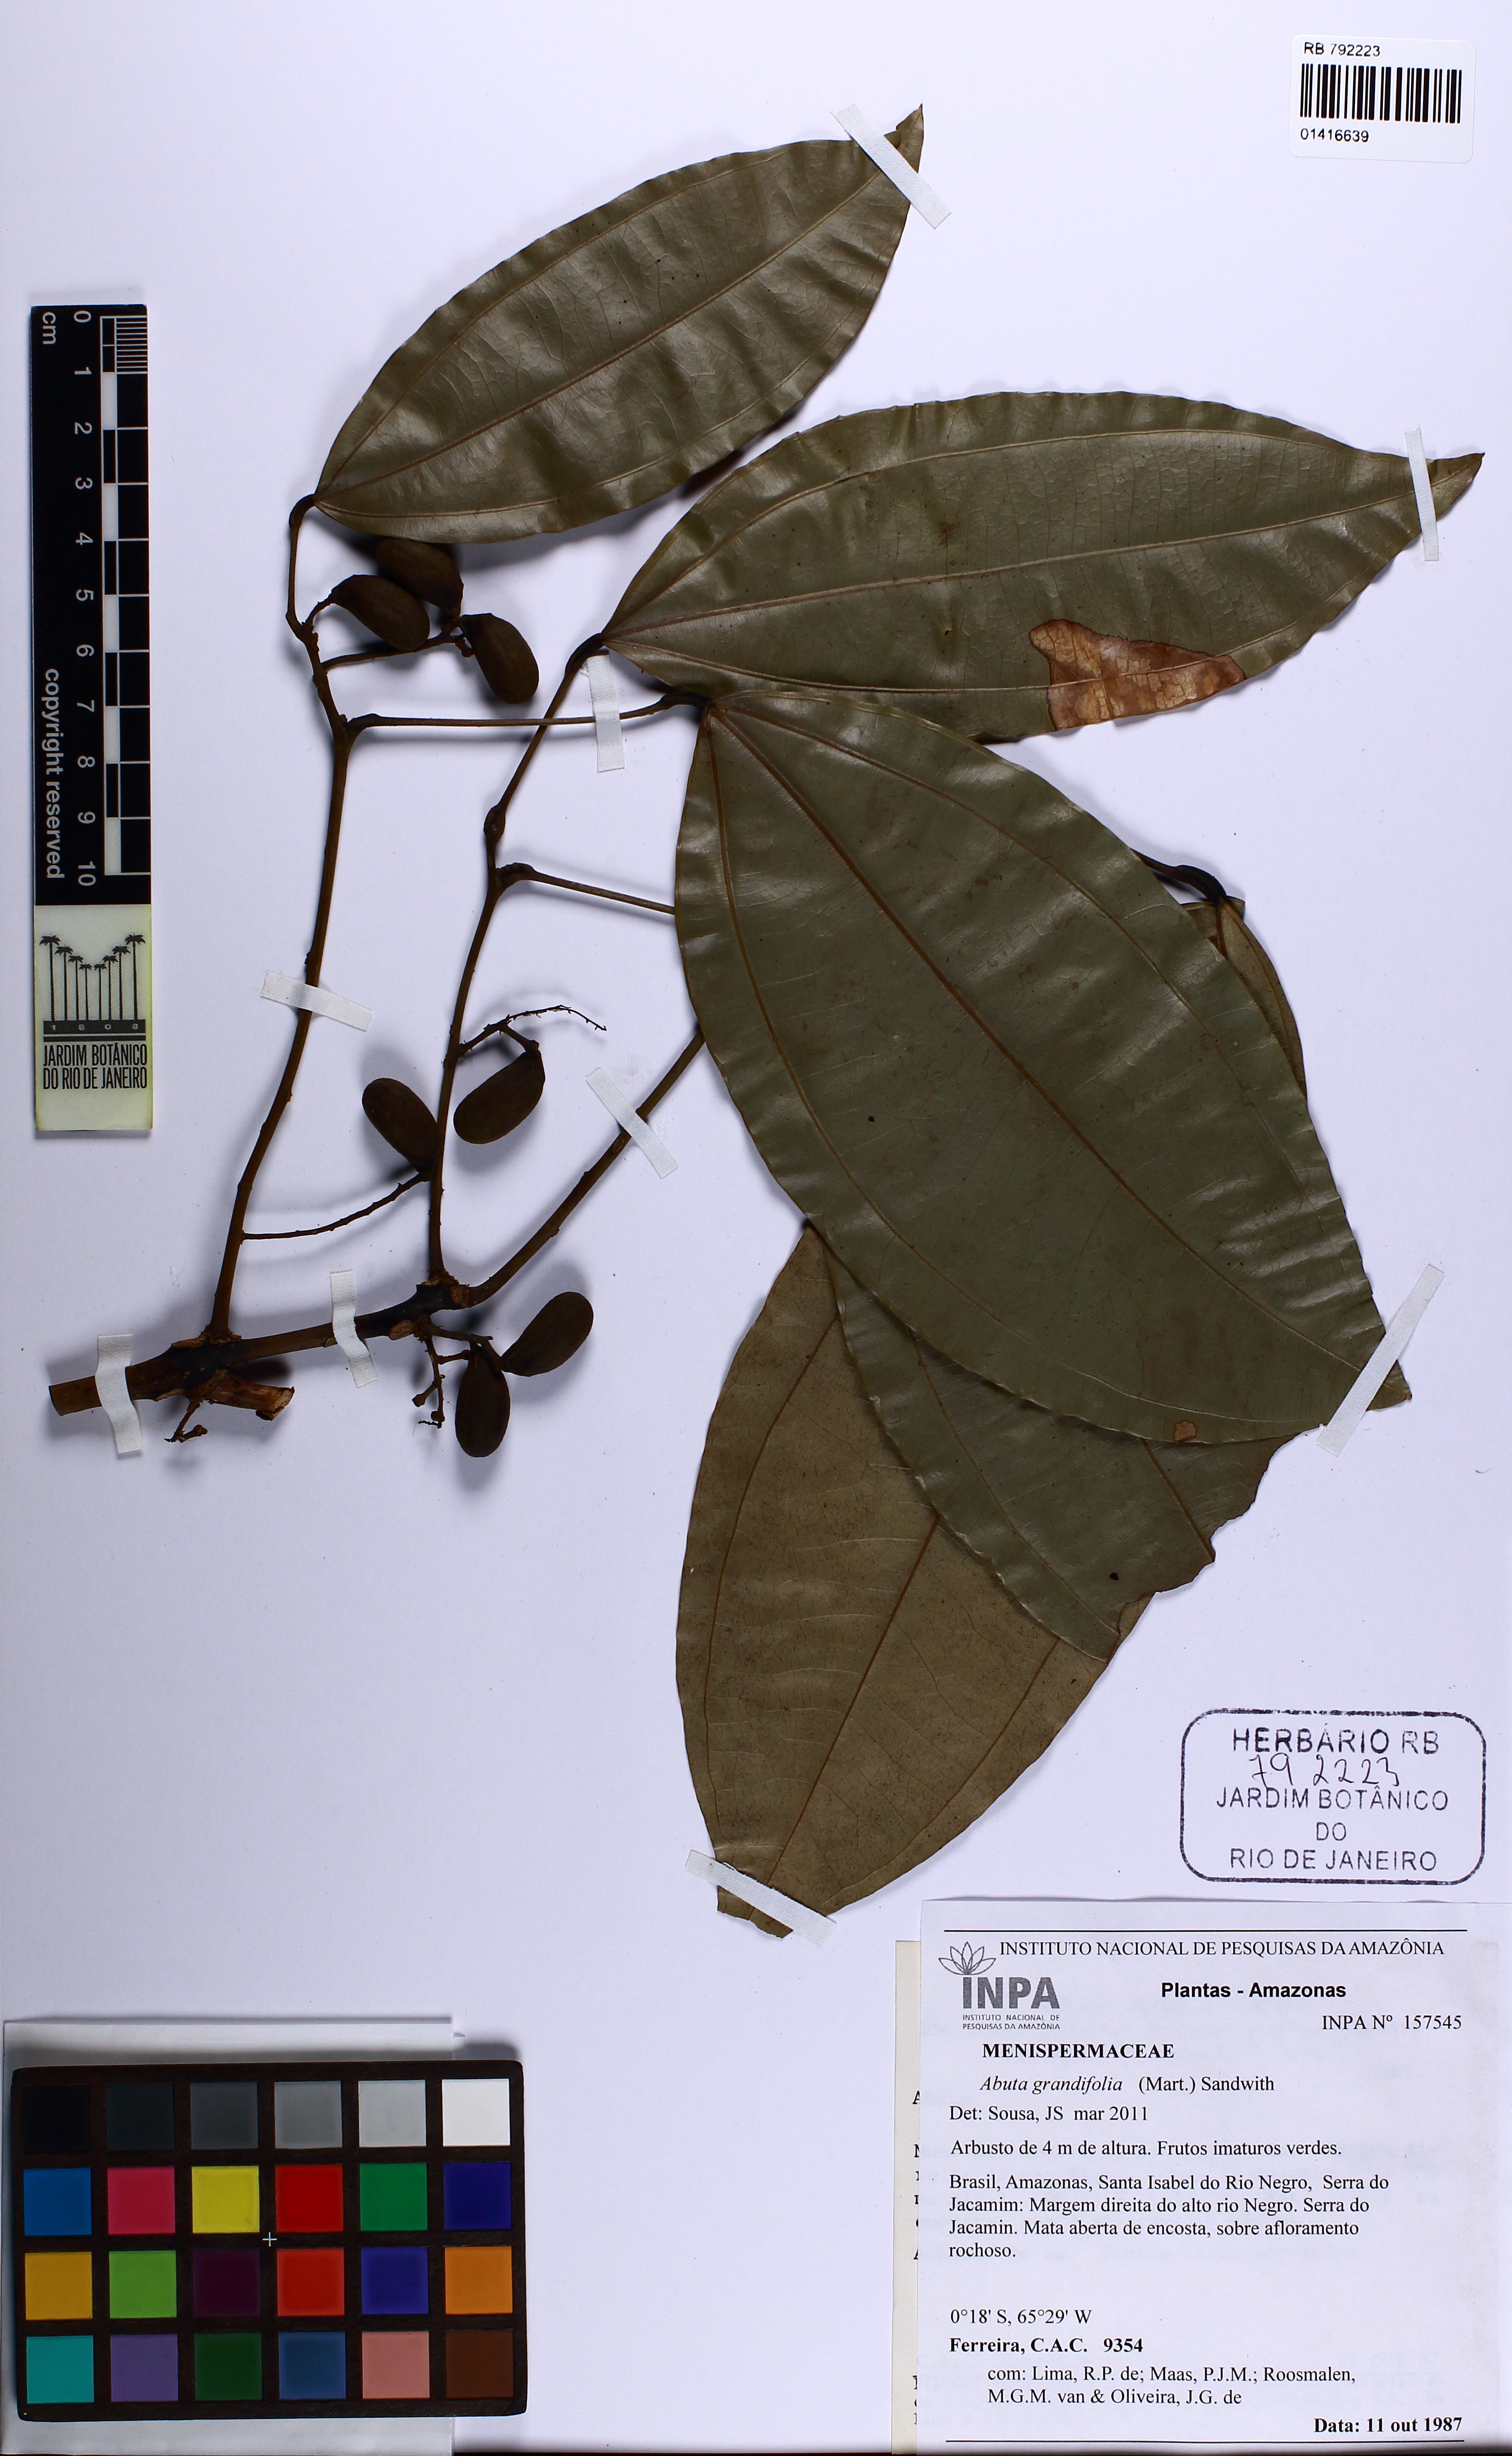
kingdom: Plantae
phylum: Tracheophyta
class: Magnoliopsida
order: Ranunculales
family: Menispermaceae
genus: Abuta
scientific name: Abuta grandifolia
